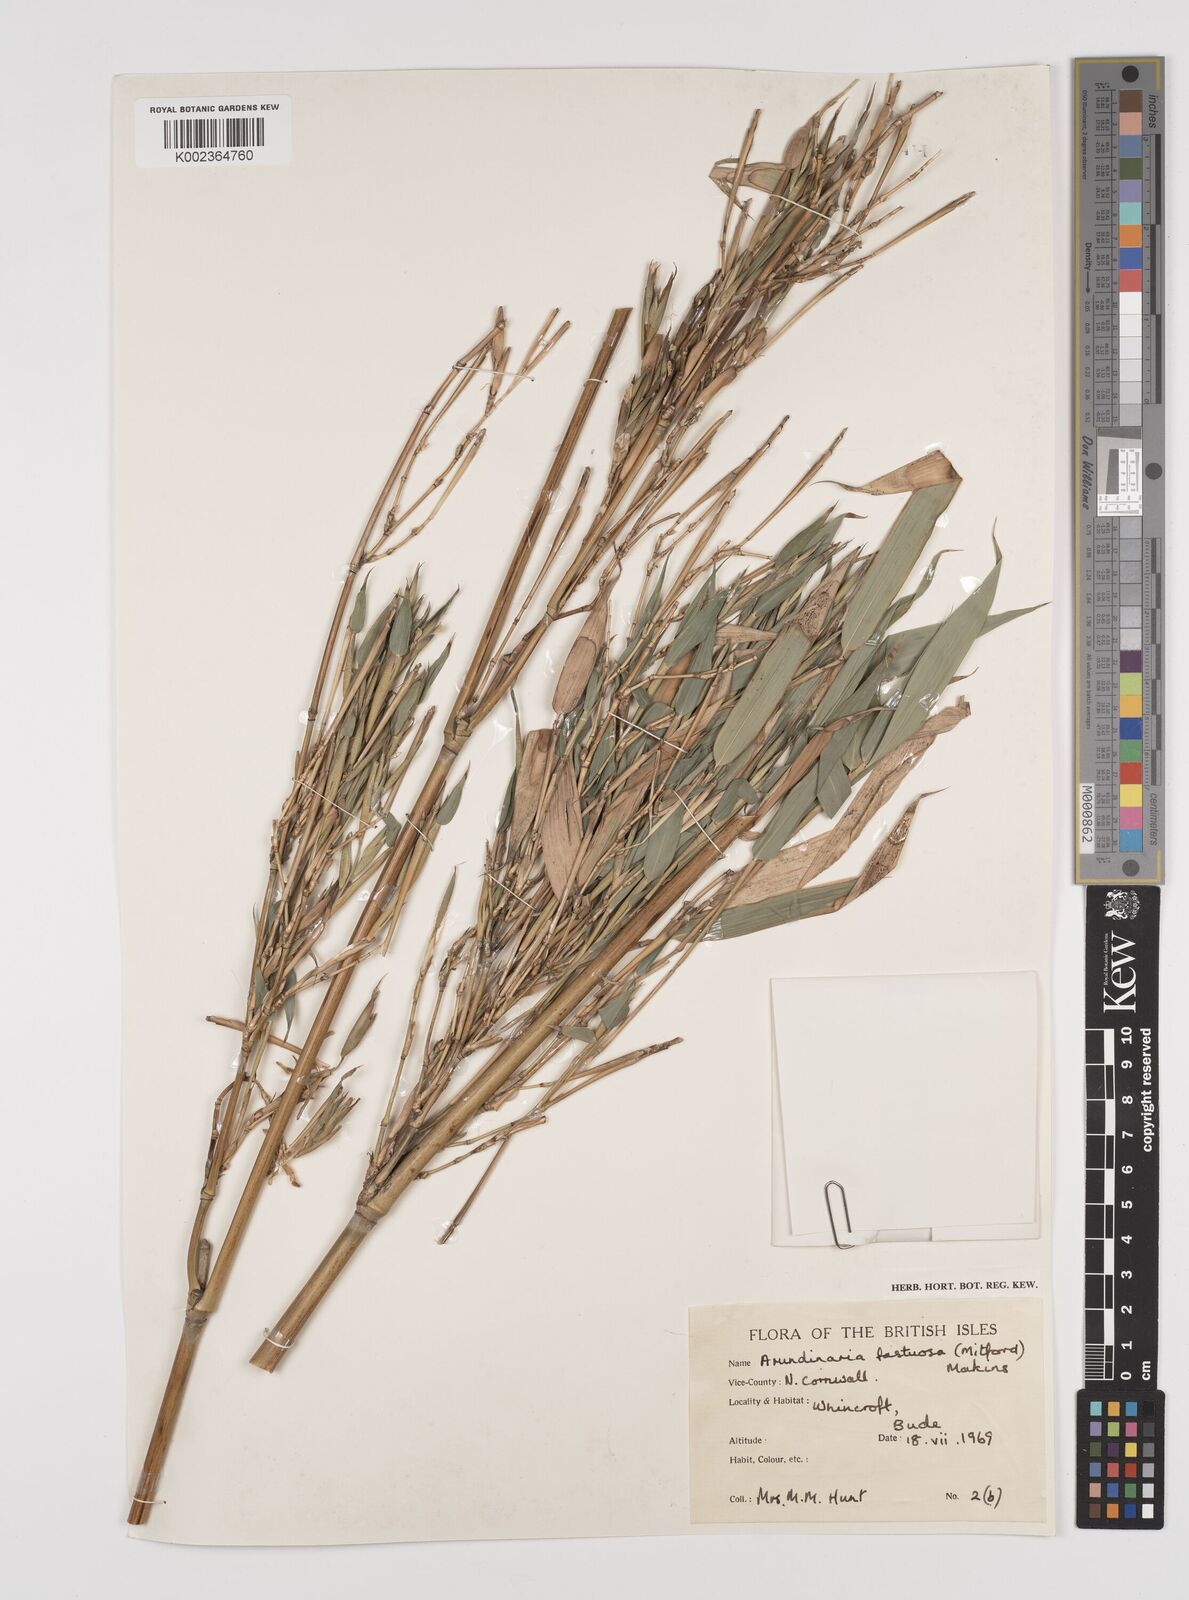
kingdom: Plantae
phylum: Tracheophyta
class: Liliopsida
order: Poales
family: Poaceae
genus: Semiarundinaria
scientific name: Semiarundinaria fastuosa
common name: Narihira bamboo
